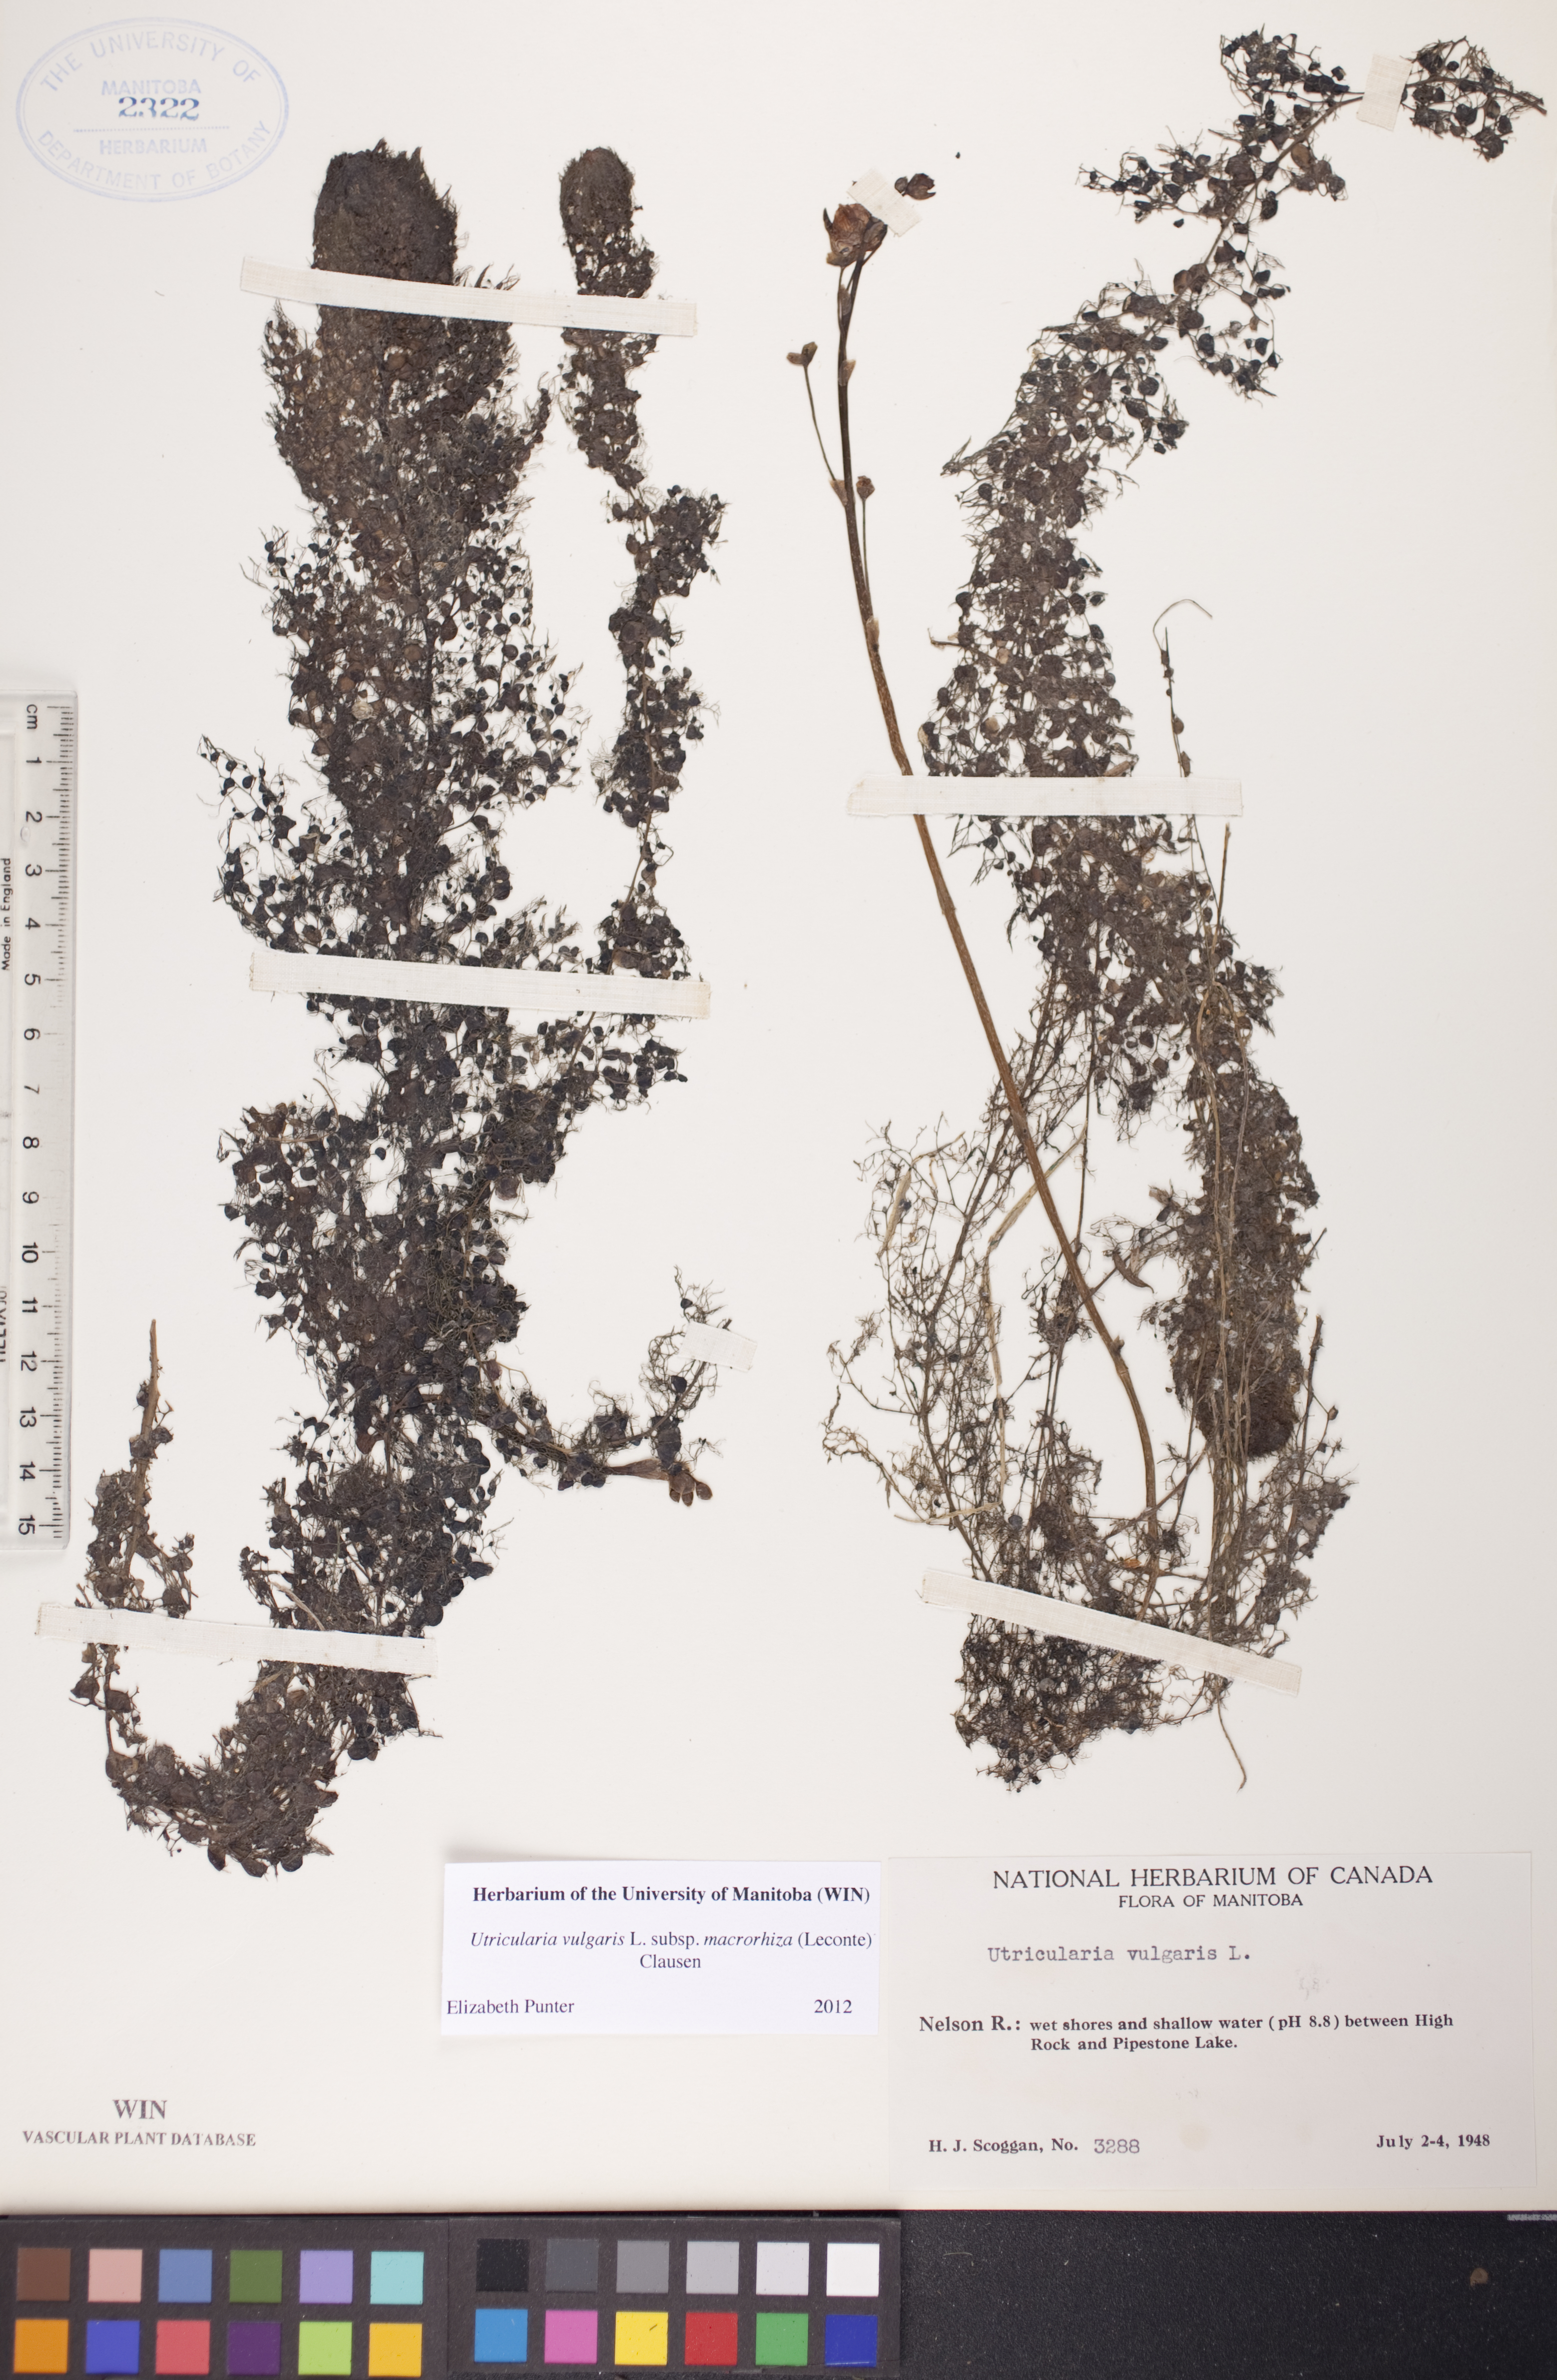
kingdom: Plantae
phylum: Tracheophyta
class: Magnoliopsida
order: Lamiales
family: Lentibulariaceae
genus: Utricularia
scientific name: Utricularia macrorhiza
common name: Common bladderwort
